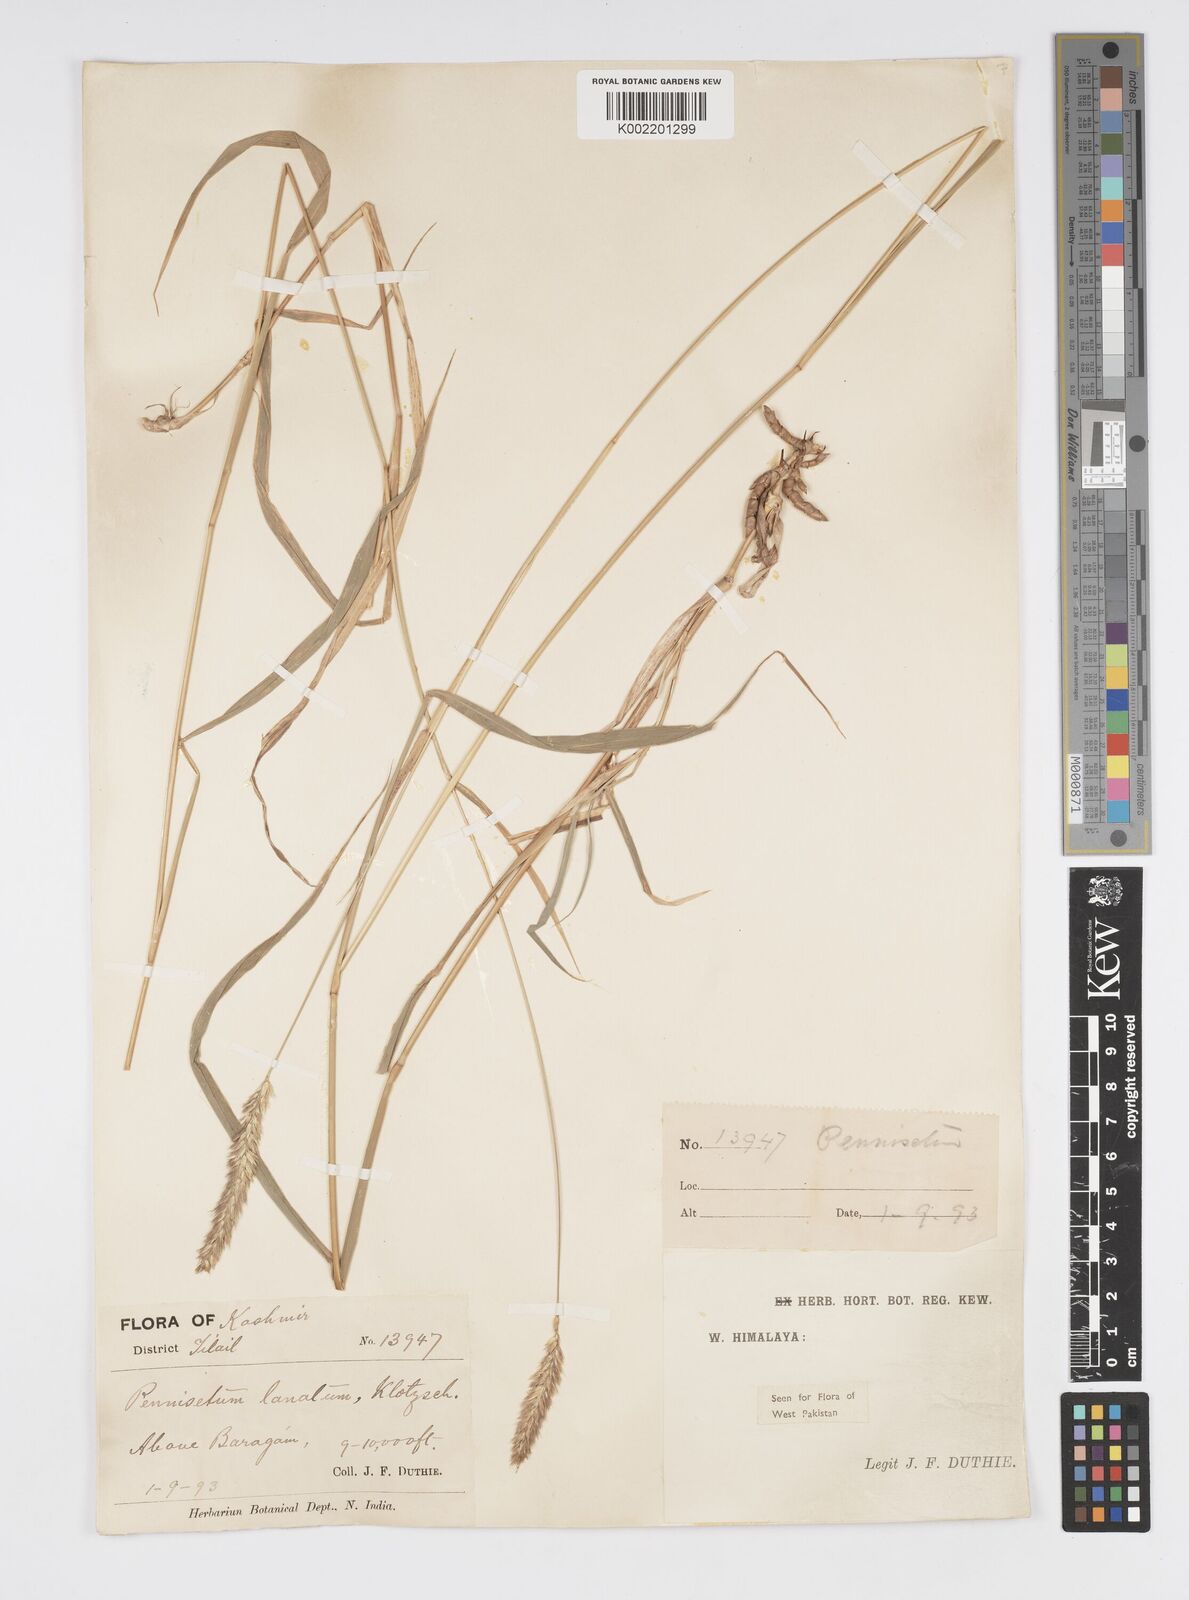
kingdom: Plantae
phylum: Tracheophyta
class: Liliopsida
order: Poales
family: Poaceae
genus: Cenchrus
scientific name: Cenchrus lanatus
